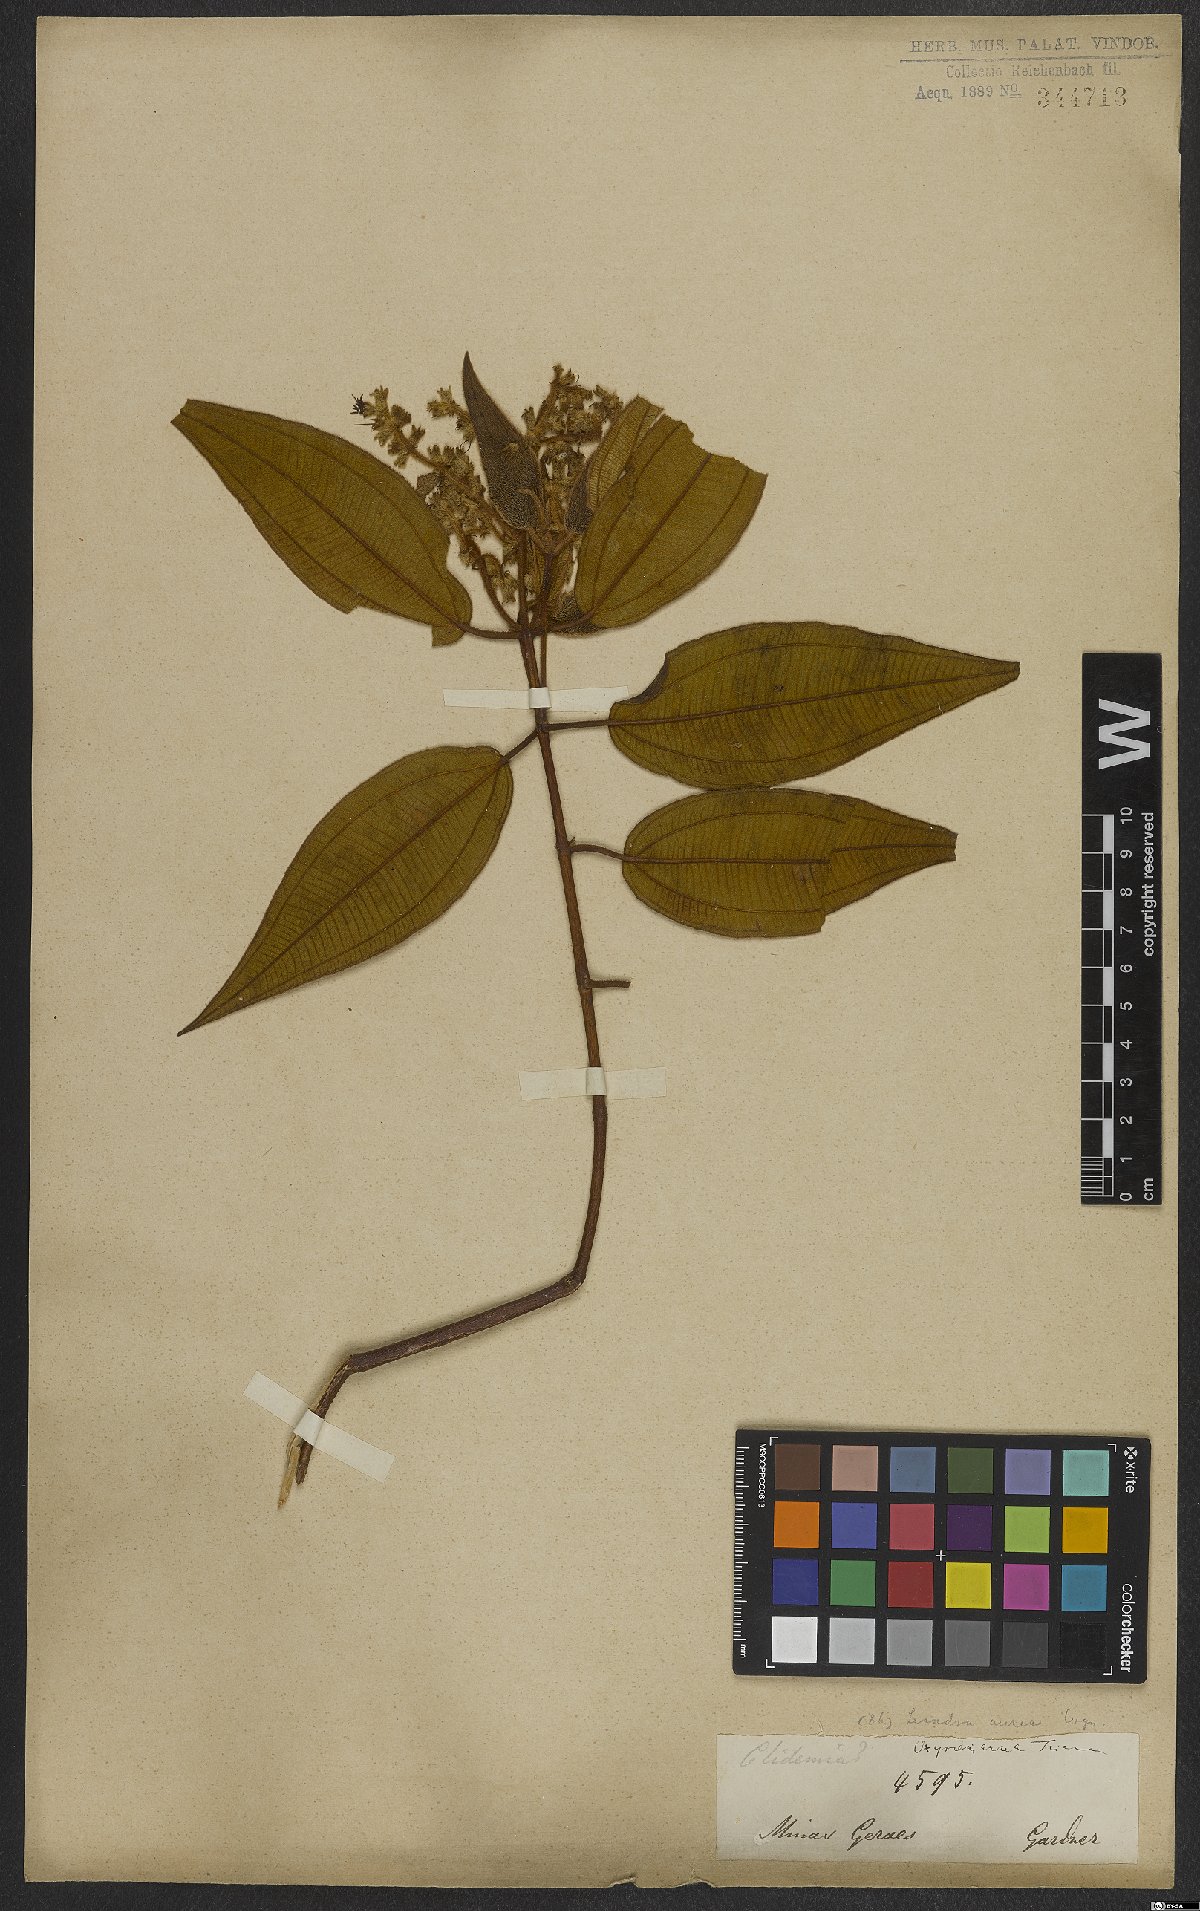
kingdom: Plantae
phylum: Tracheophyta
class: Magnoliopsida
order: Myrtales
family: Melastomataceae
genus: Miconia
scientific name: Miconia auricoma
